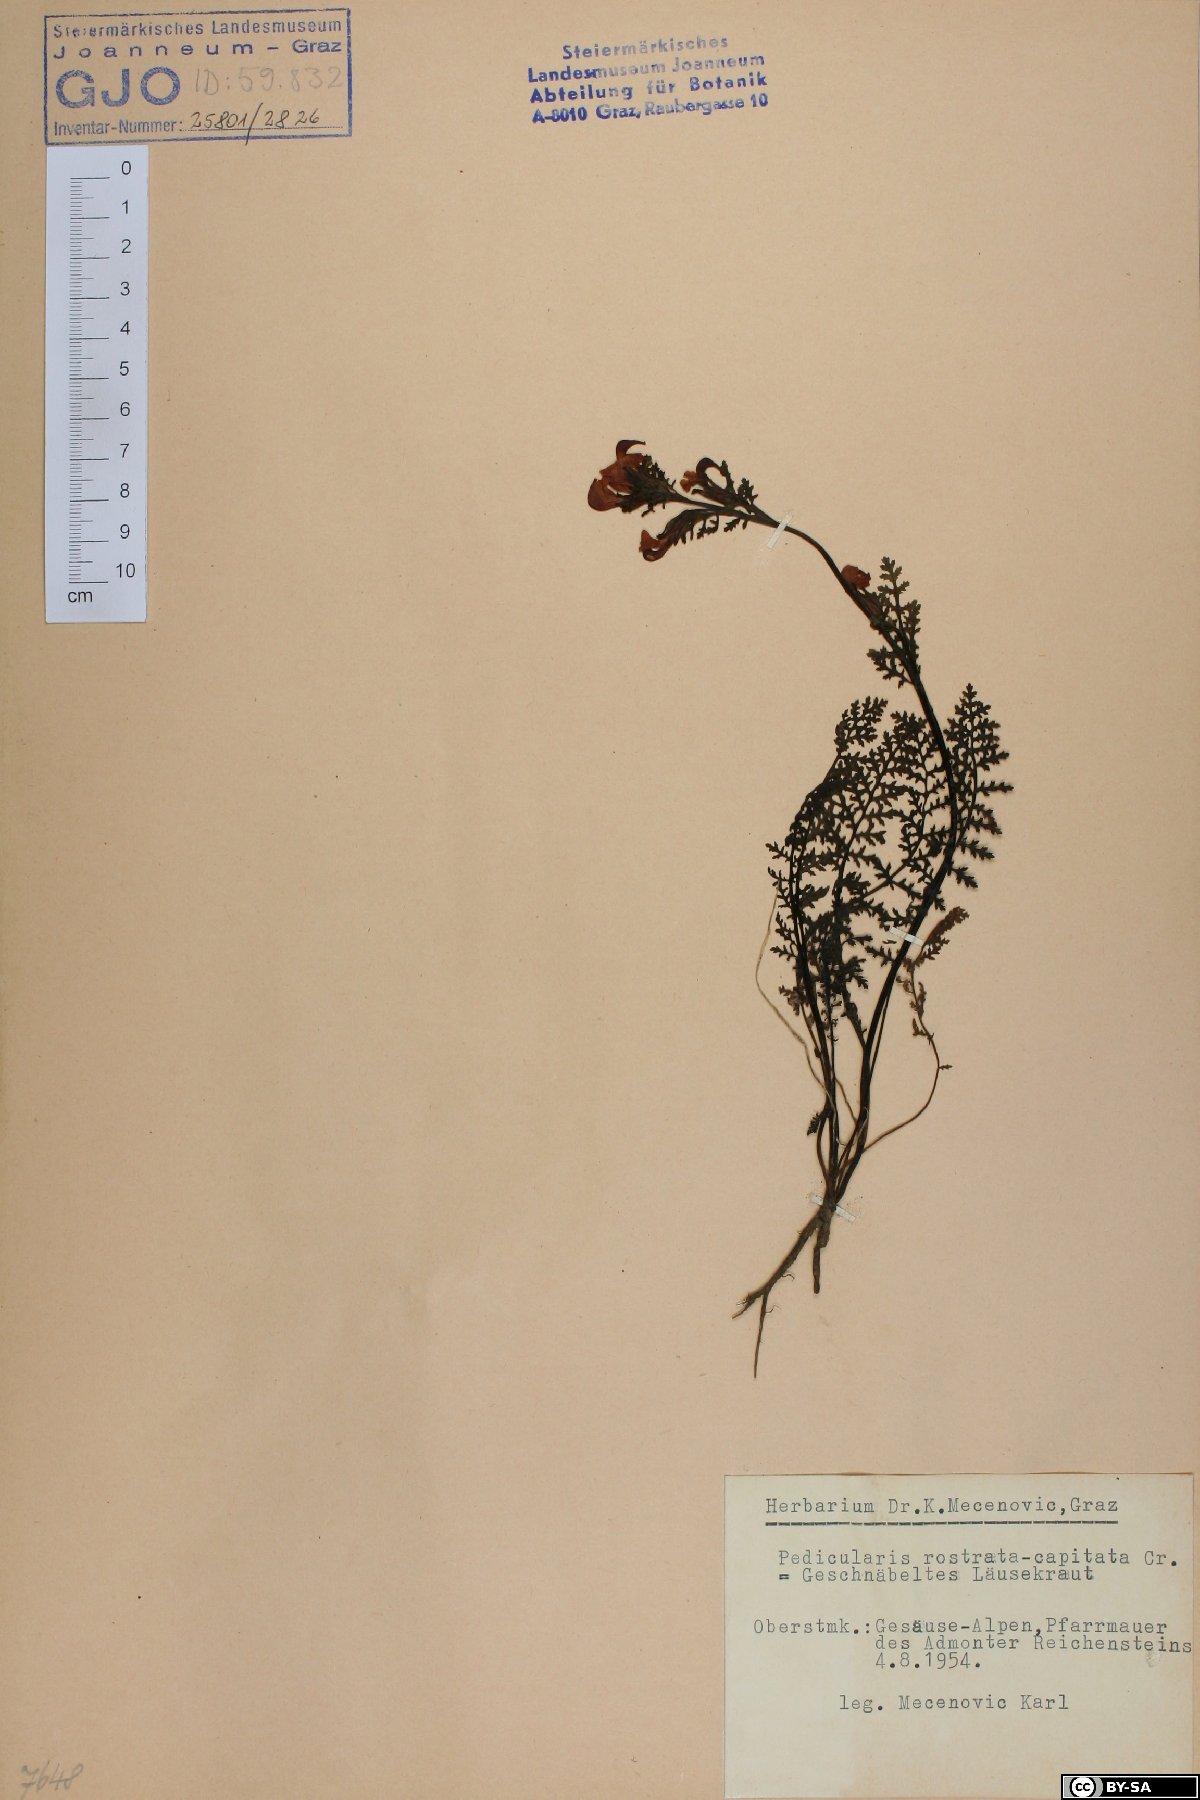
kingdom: Plantae
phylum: Tracheophyta
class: Magnoliopsida
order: Lamiales
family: Orobanchaceae
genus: Pedicularis
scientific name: Pedicularis rostratocapitata
